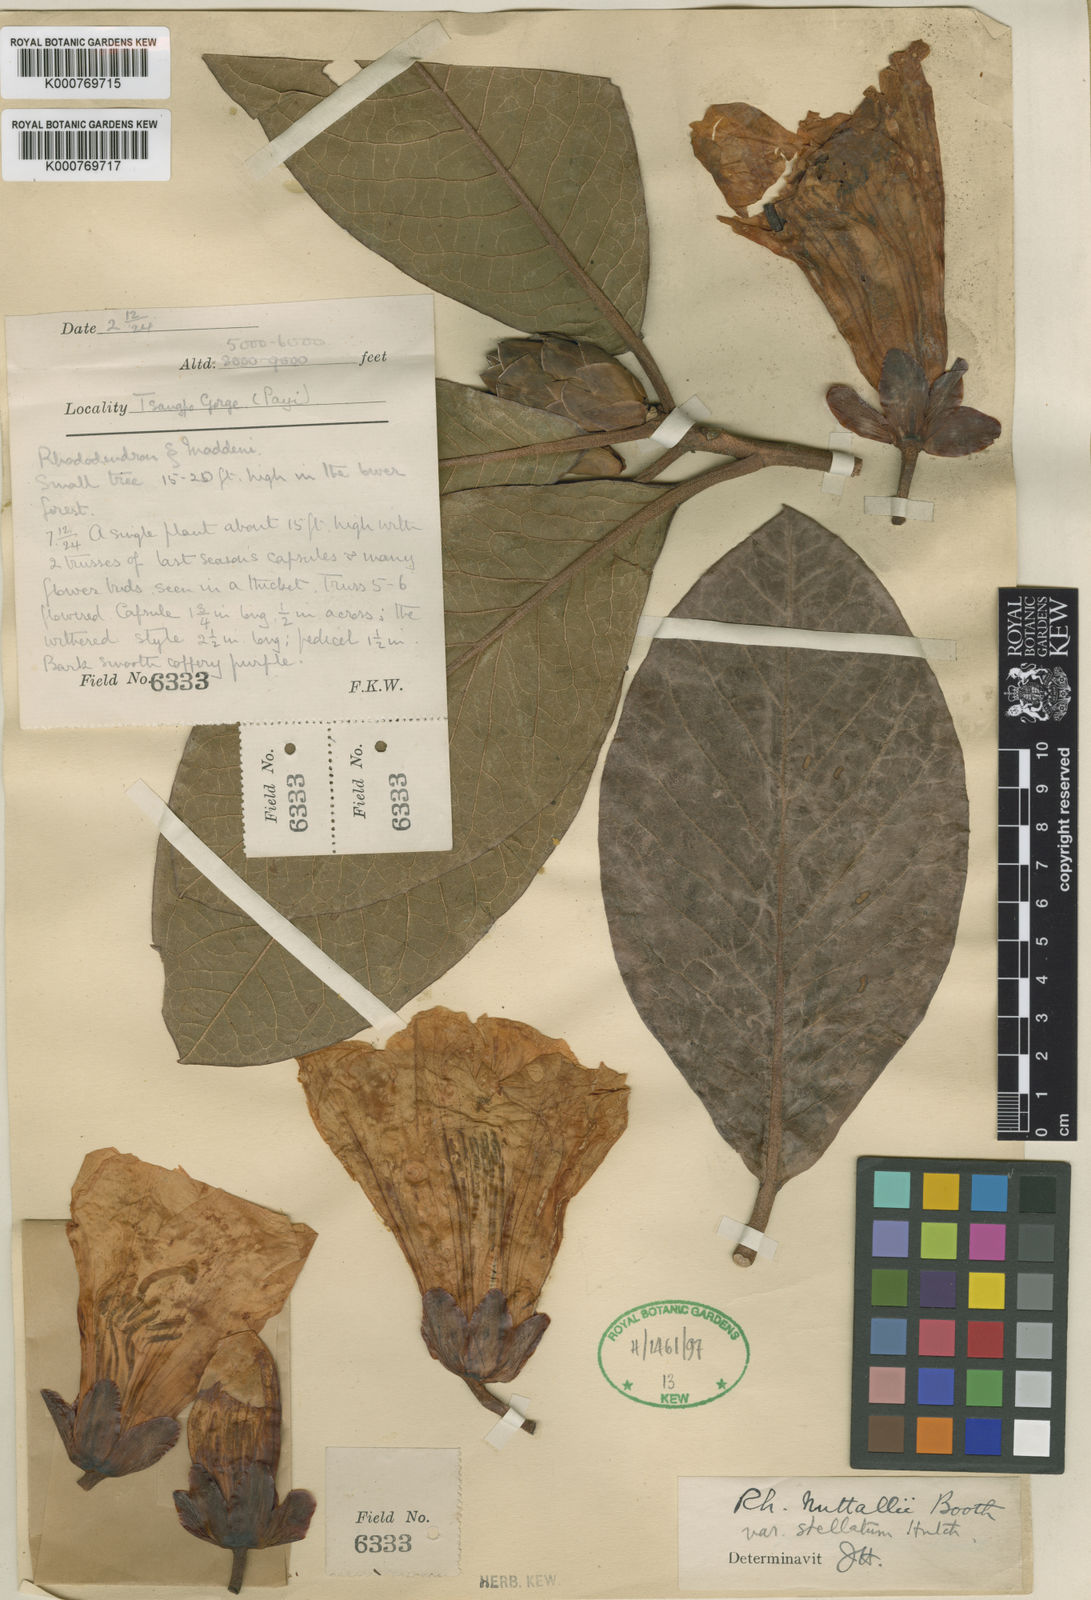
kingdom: Plantae
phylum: Tracheophyta
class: Magnoliopsida
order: Ericales
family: Ericaceae
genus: Rhododendron
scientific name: Rhododendron nuttallii
